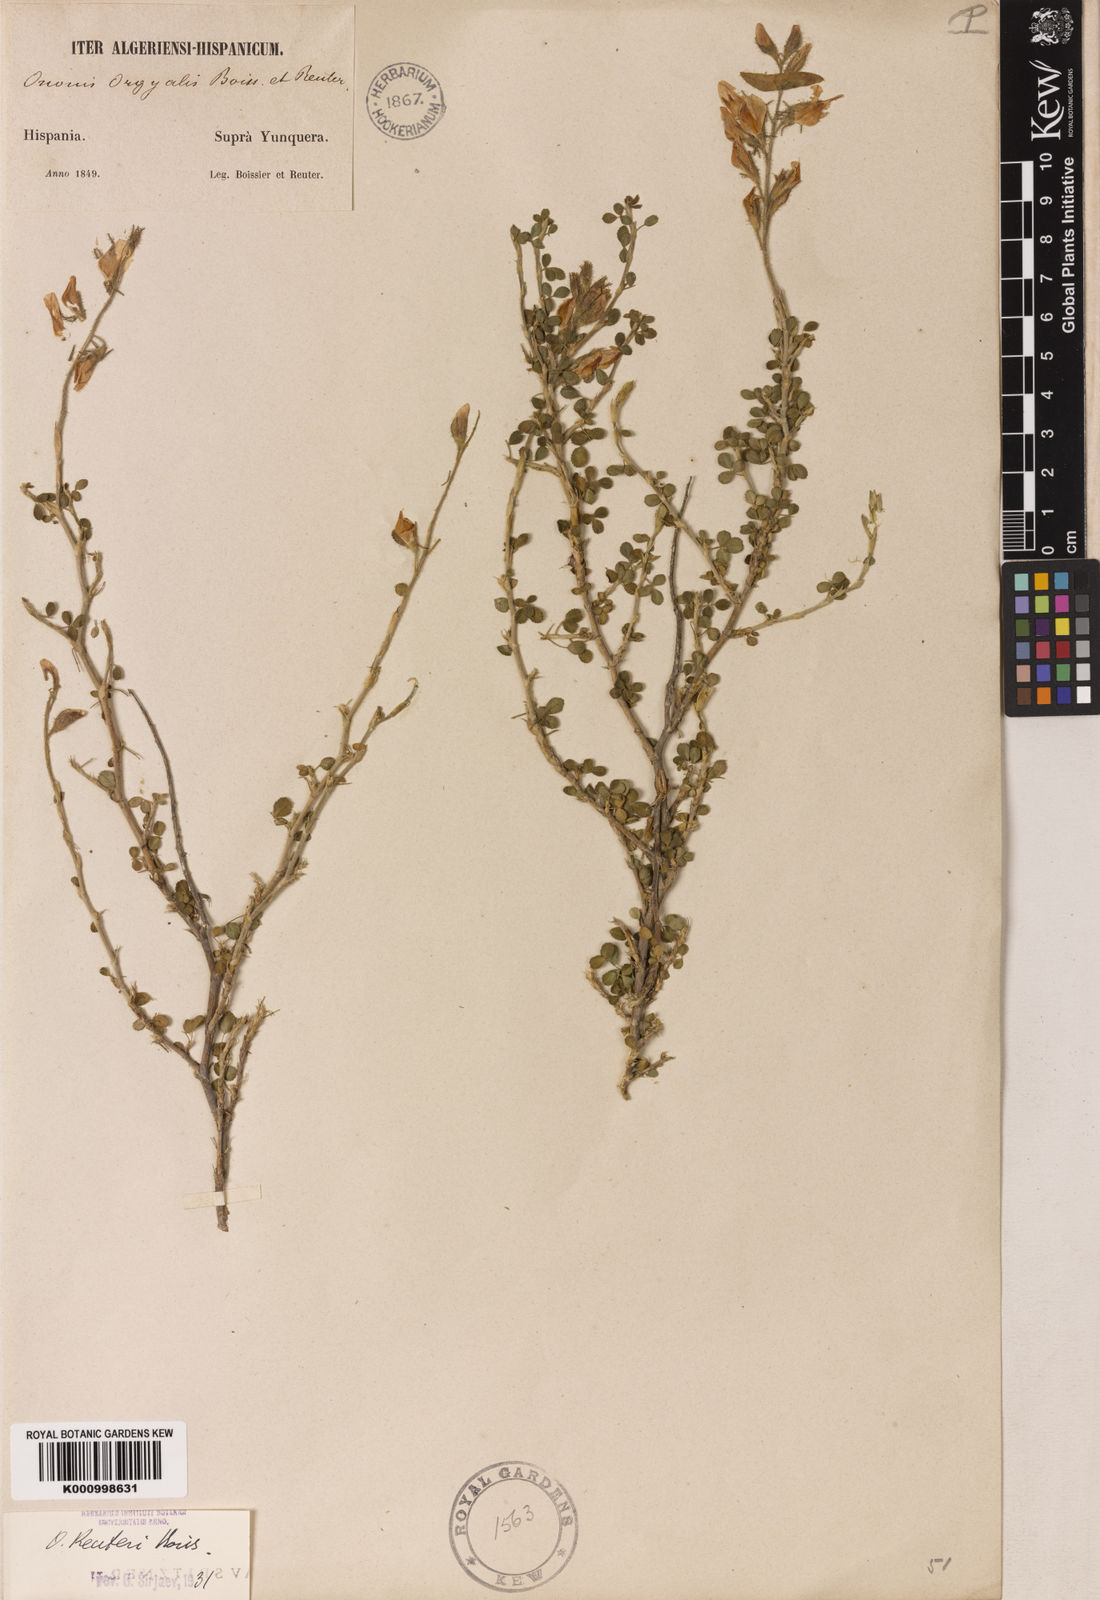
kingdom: Plantae
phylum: Tracheophyta
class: Magnoliopsida
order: Fabales
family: Fabaceae
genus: Ononis
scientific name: Ononis reuteri
